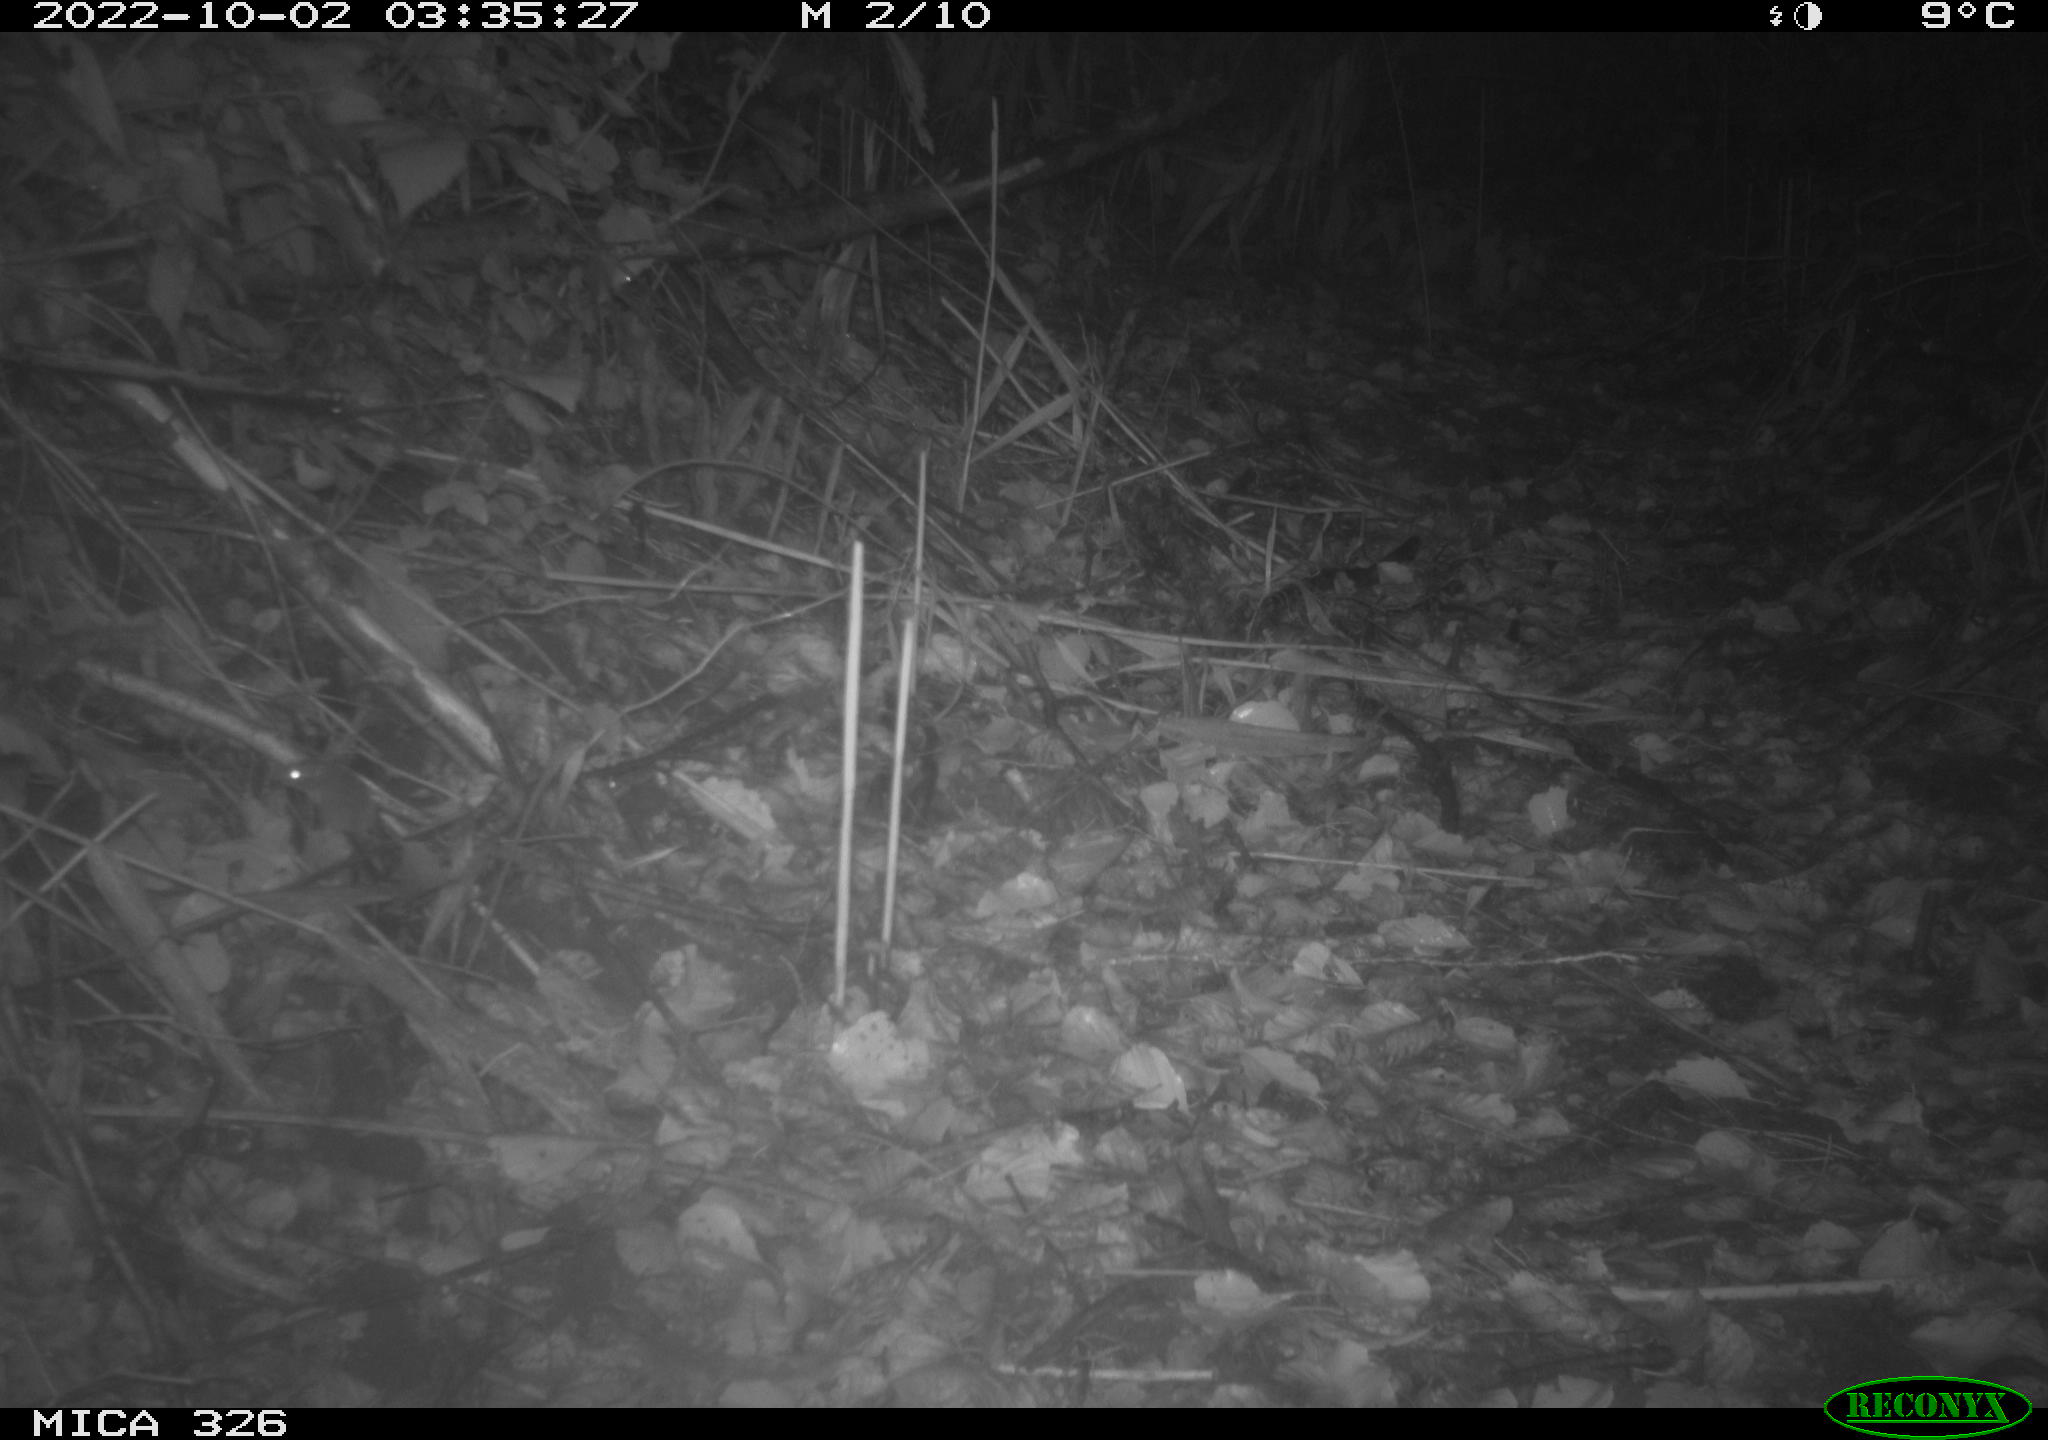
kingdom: Animalia
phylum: Chordata
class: Mammalia
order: Rodentia
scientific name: Rodentia
